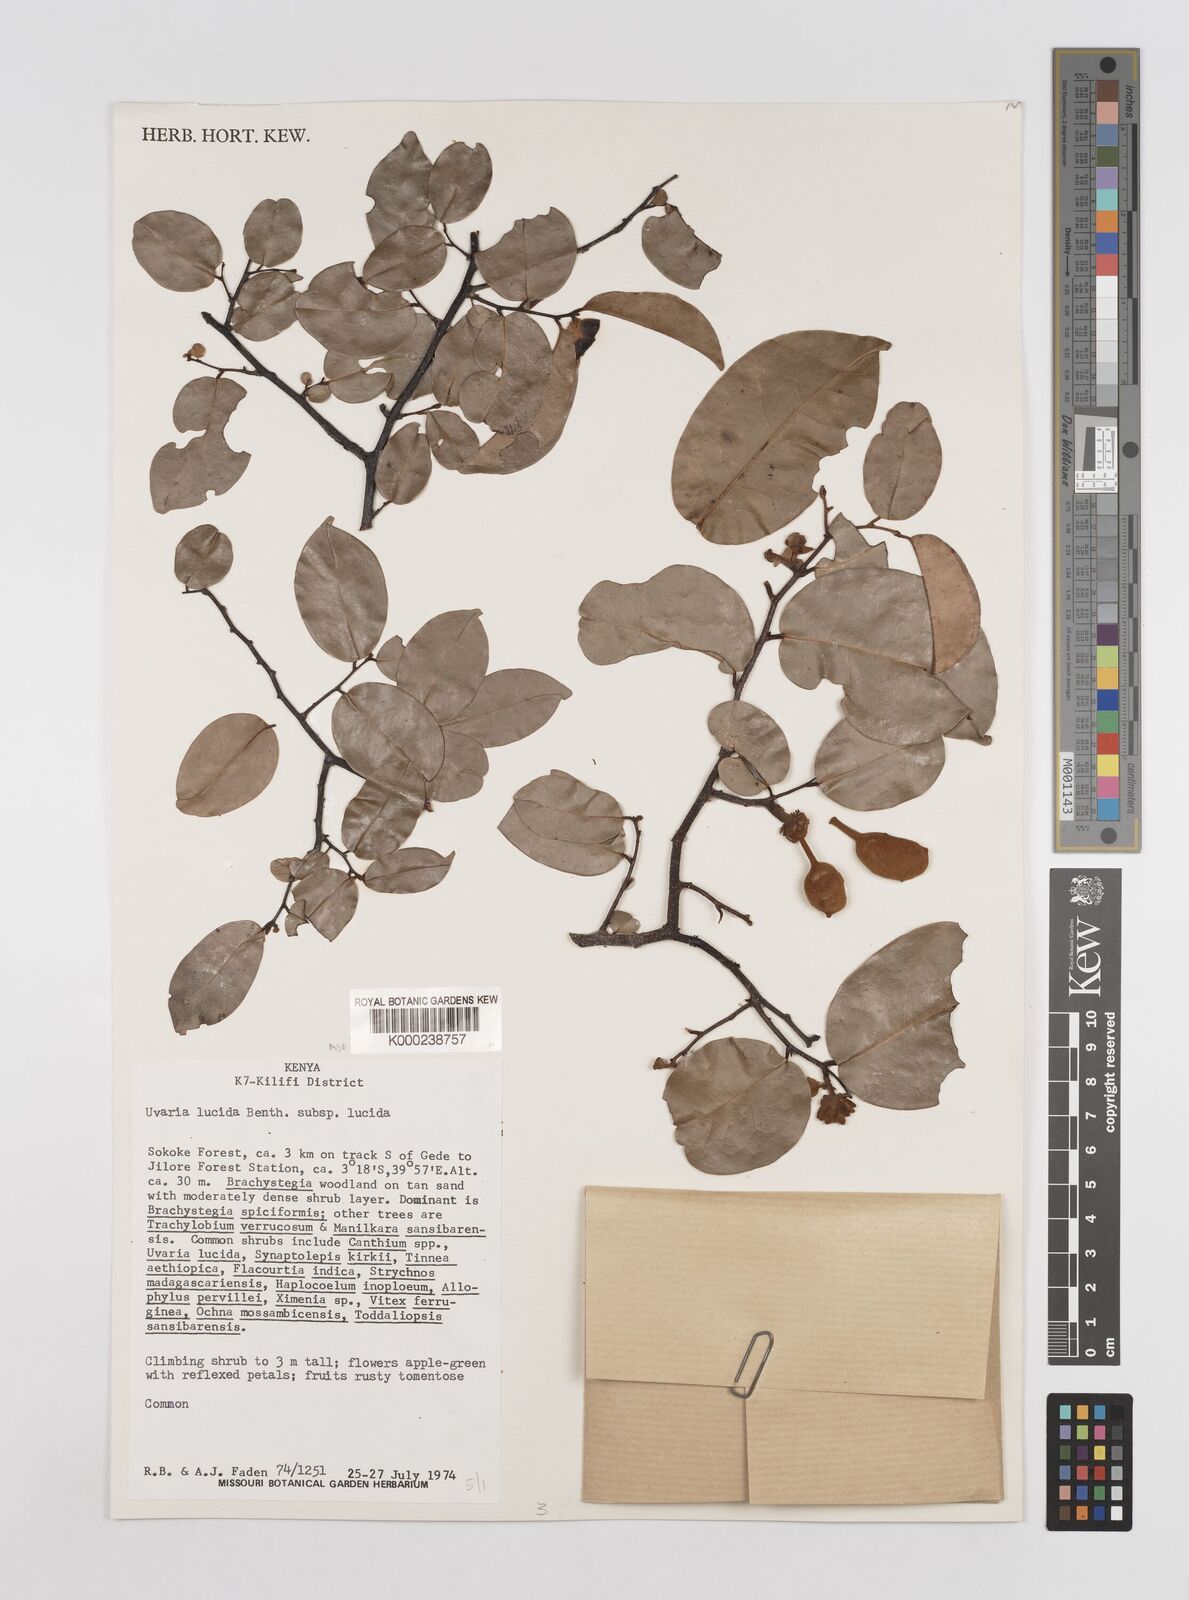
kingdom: Plantae
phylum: Tracheophyta
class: Magnoliopsida
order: Magnoliales
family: Annonaceae
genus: Uvaria
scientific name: Uvaria lucida
